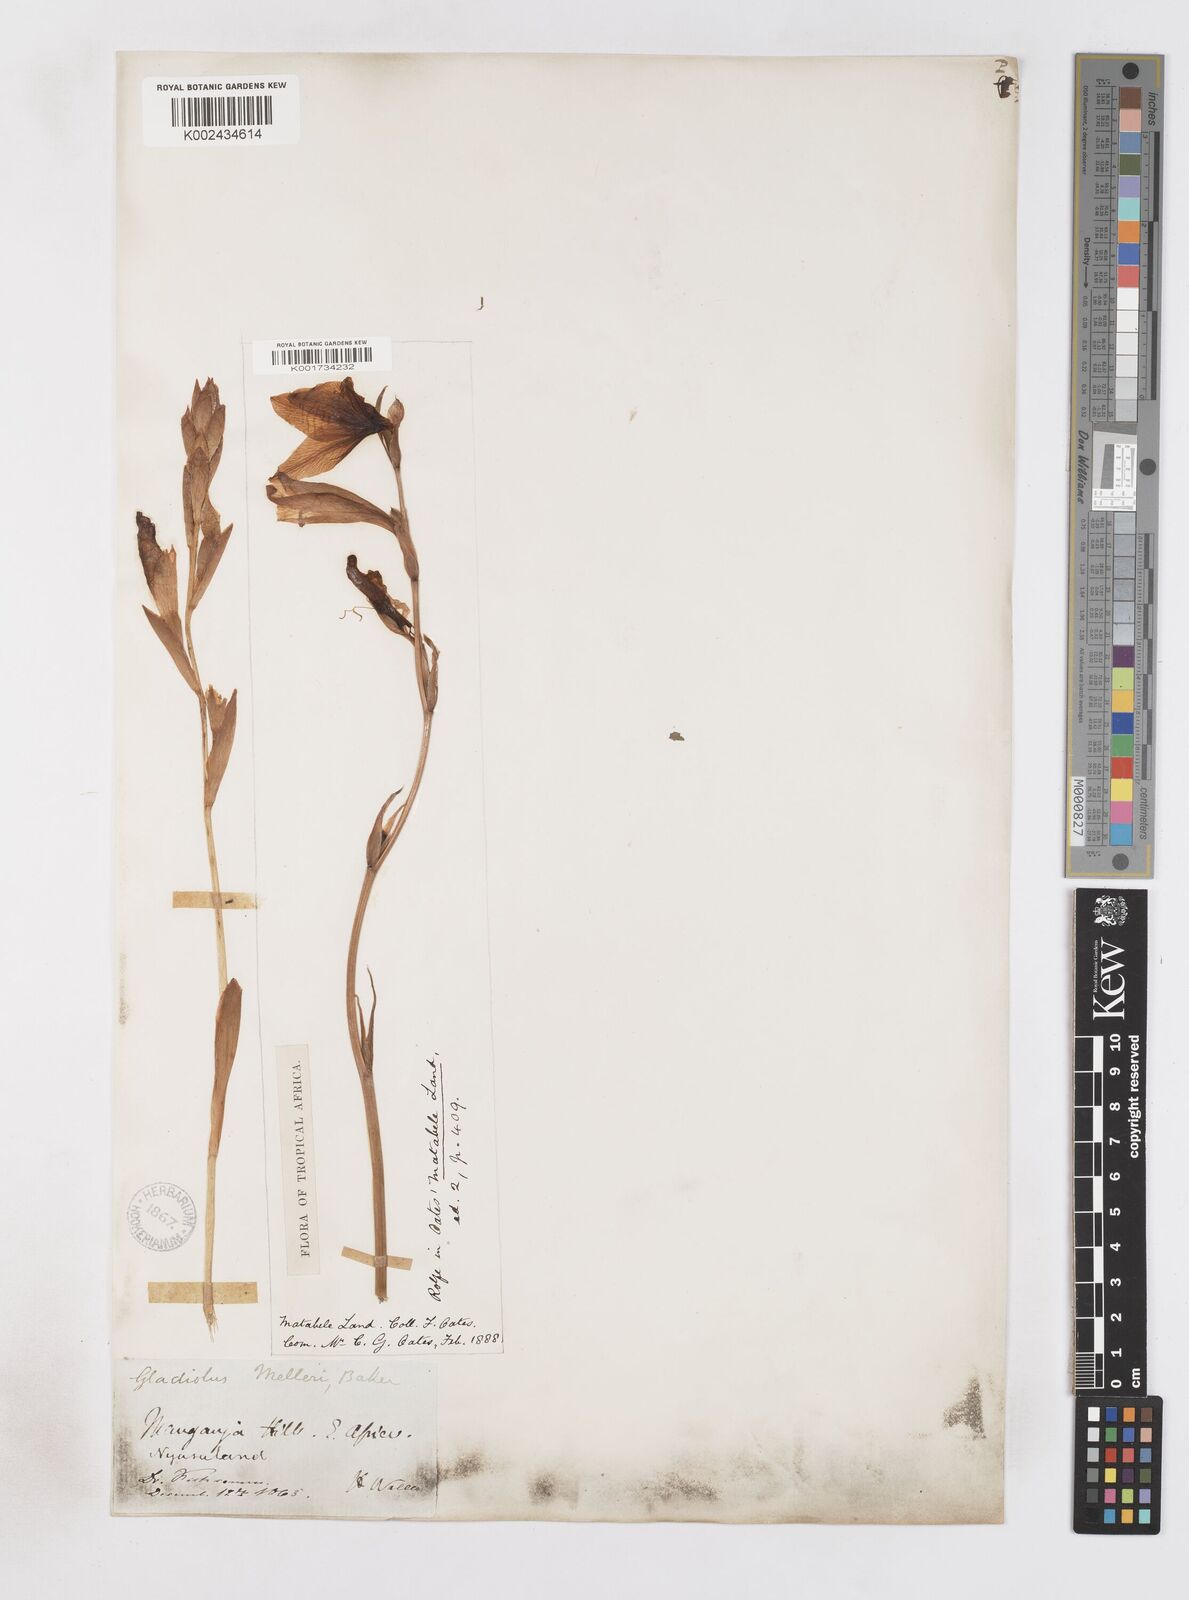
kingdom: Plantae
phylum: Tracheophyta
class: Liliopsida
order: Asparagales
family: Iridaceae
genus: Gladiolus
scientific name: Gladiolus melleri
